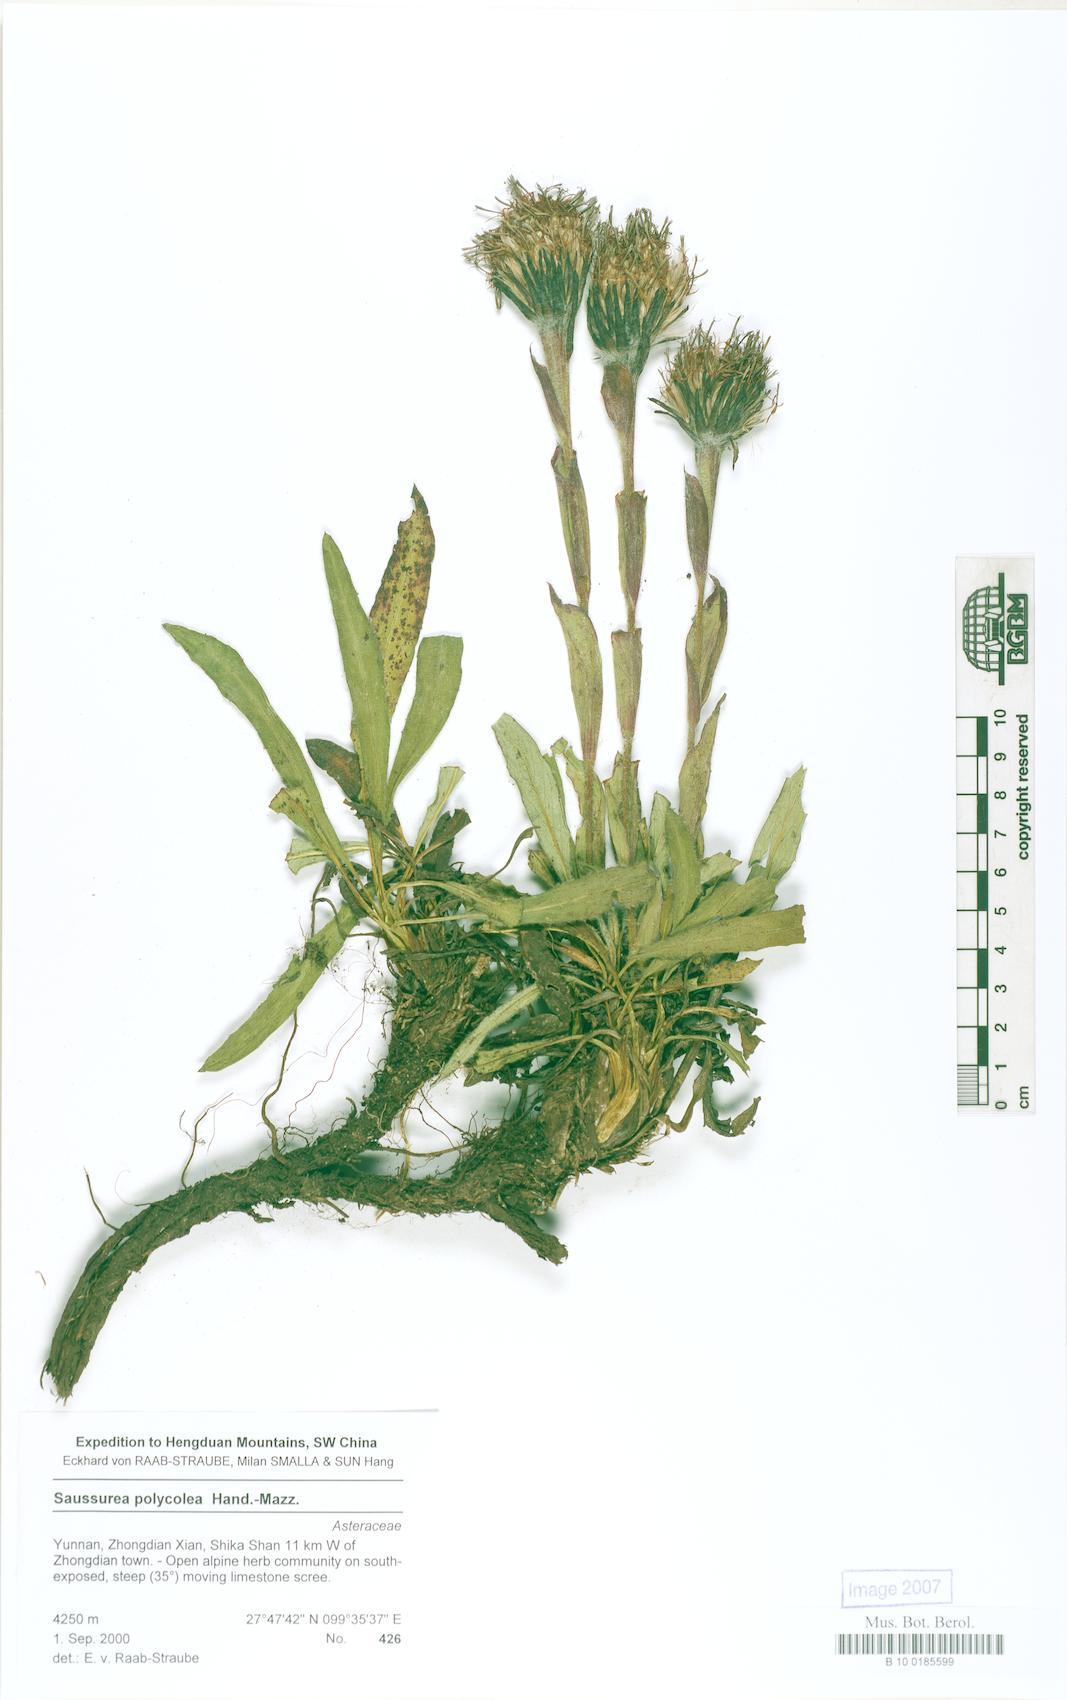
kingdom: Plantae
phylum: Tracheophyta
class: Magnoliopsida
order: Asterales
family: Asteraceae
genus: Saussurea
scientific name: Saussurea polycolea
